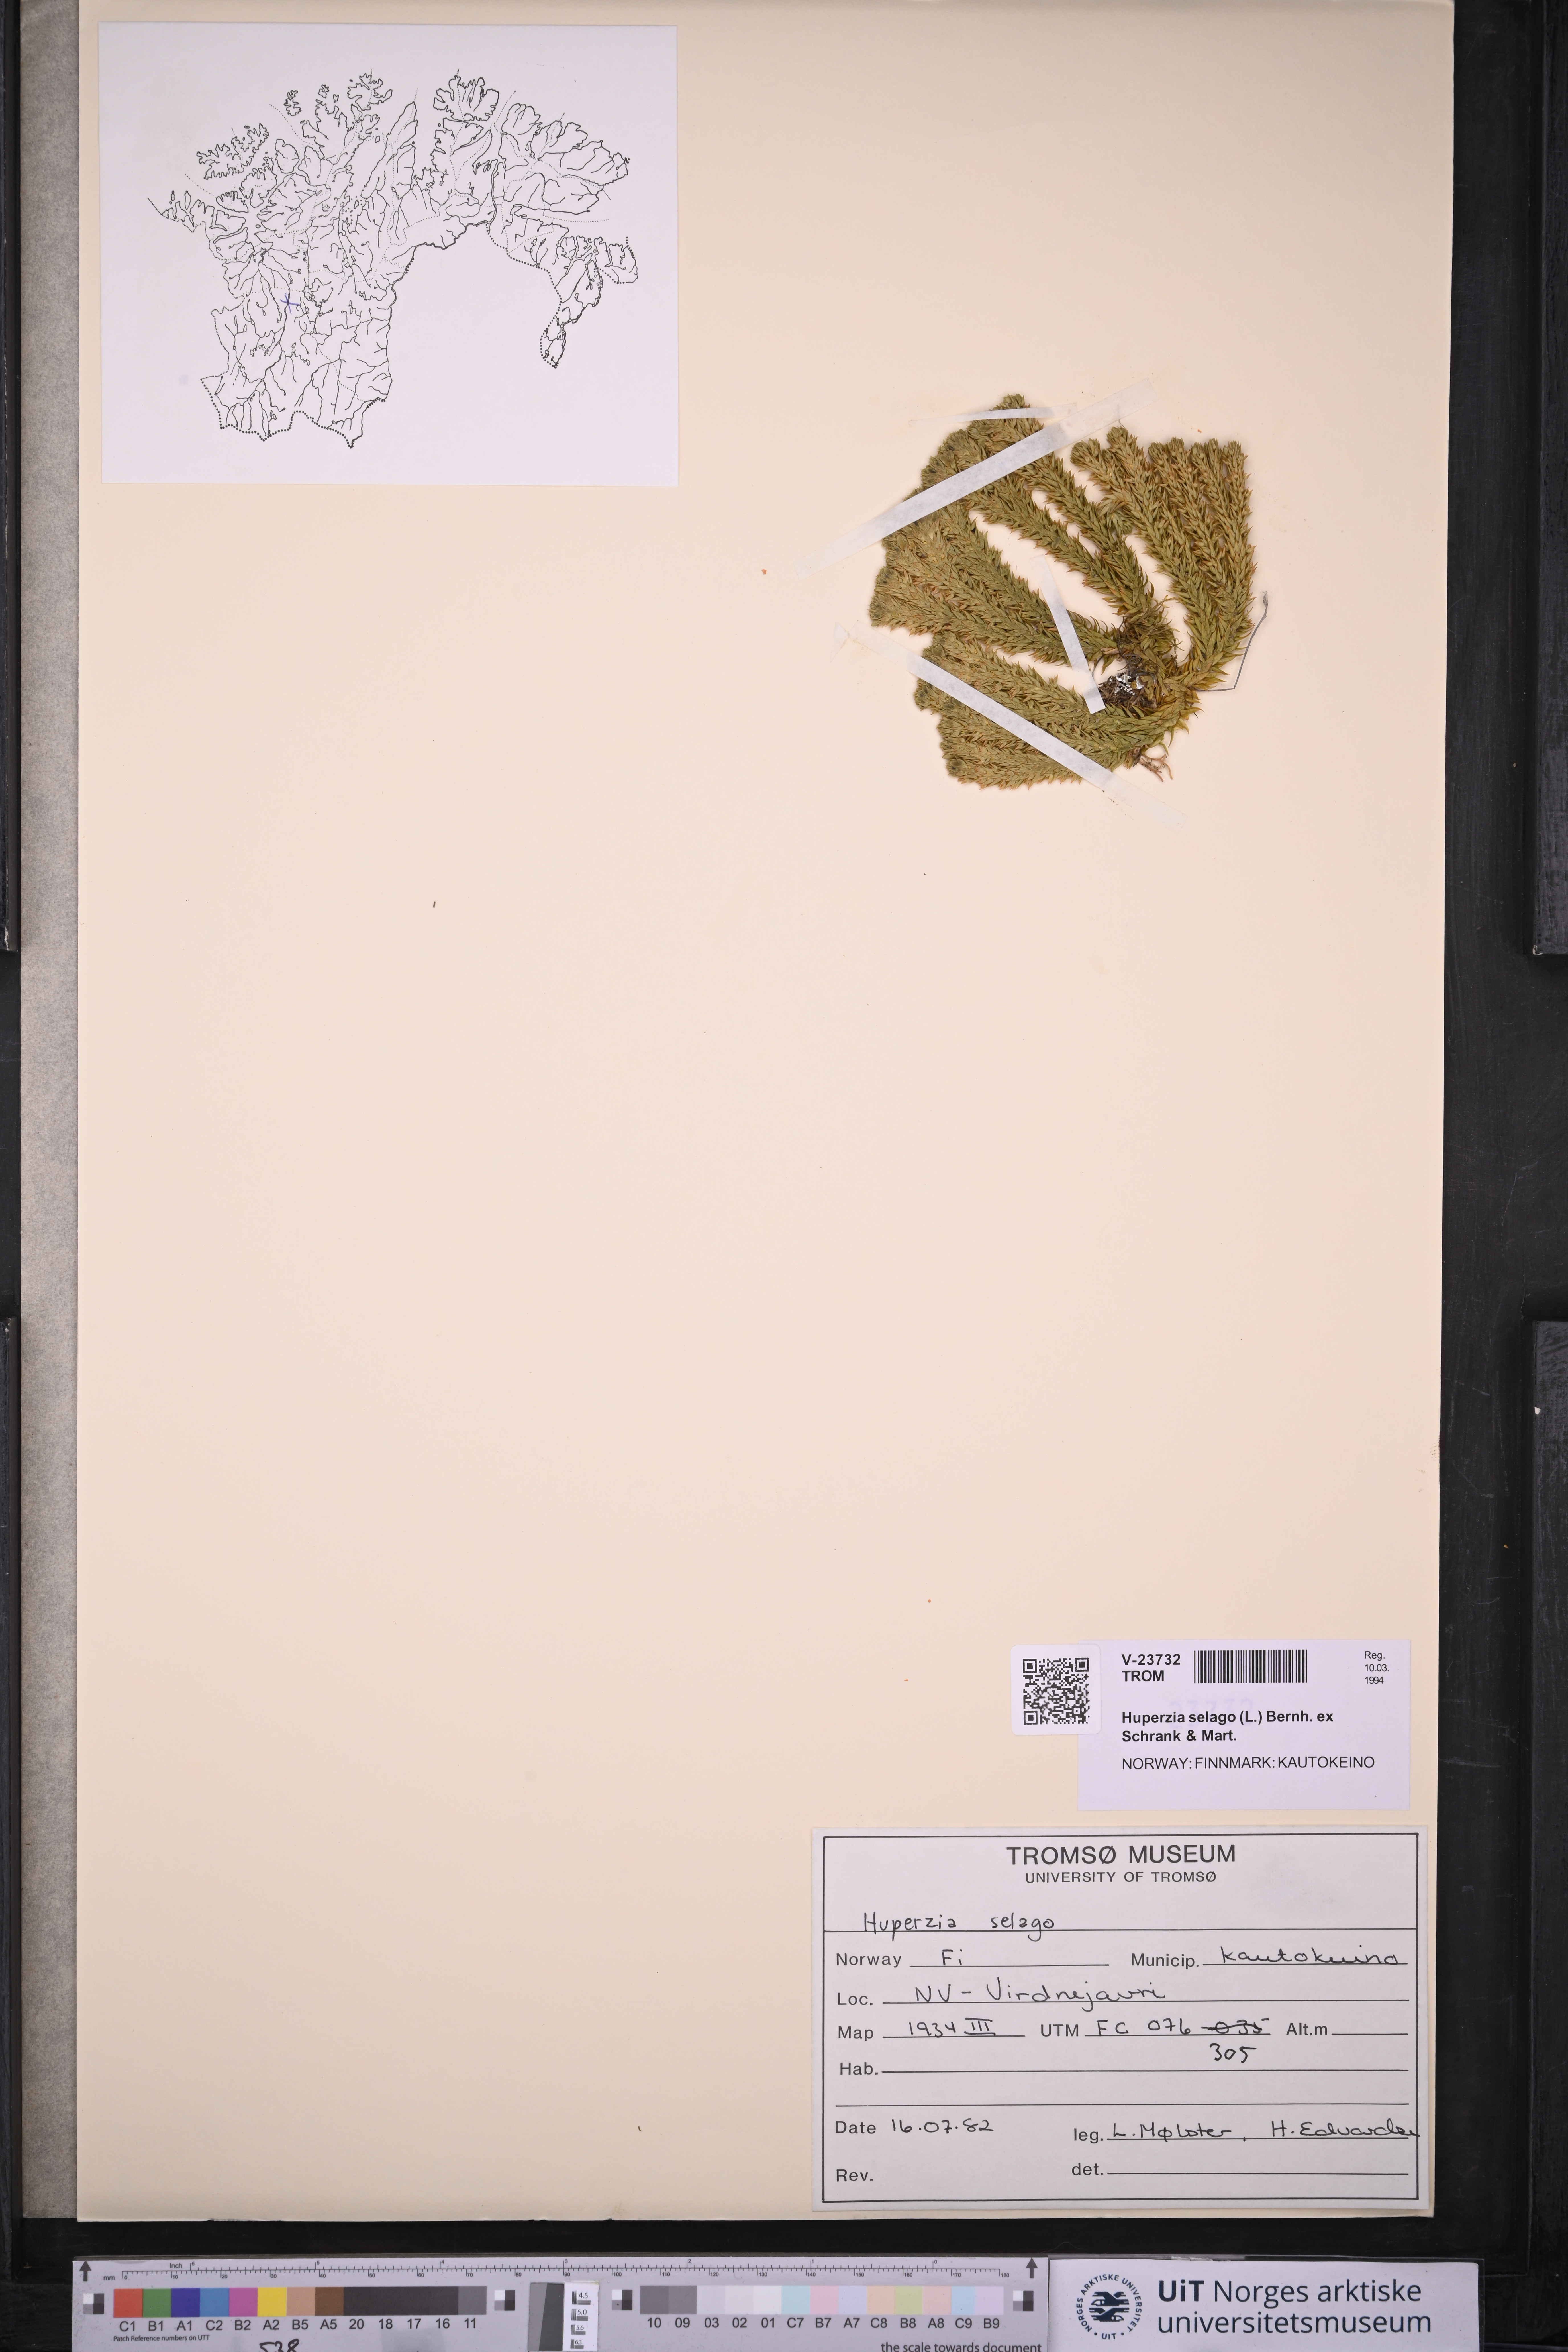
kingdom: Plantae
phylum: Tracheophyta
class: Lycopodiopsida
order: Lycopodiales
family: Lycopodiaceae
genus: Huperzia
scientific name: Huperzia selago
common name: Northern firmoss
